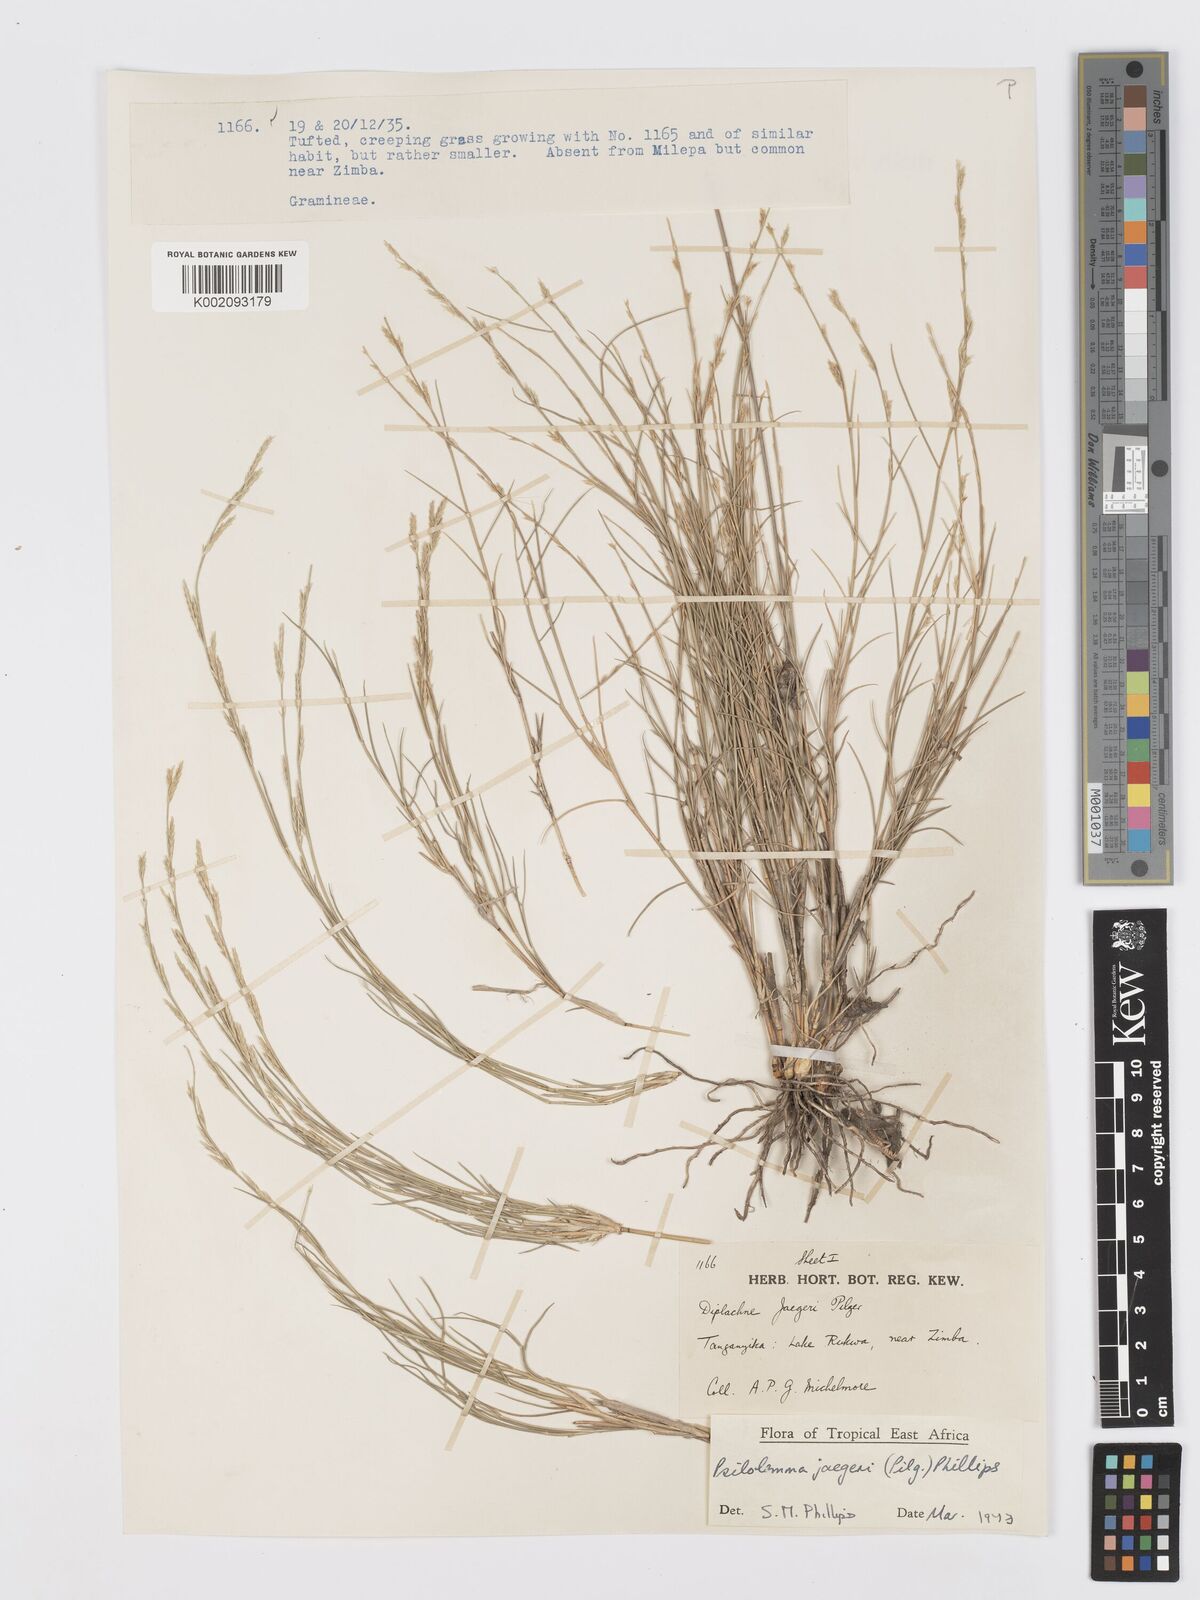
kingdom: Plantae
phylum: Tracheophyta
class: Liliopsida
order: Poales
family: Poaceae
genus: Psilolemma
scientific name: Psilolemma jaegeri
